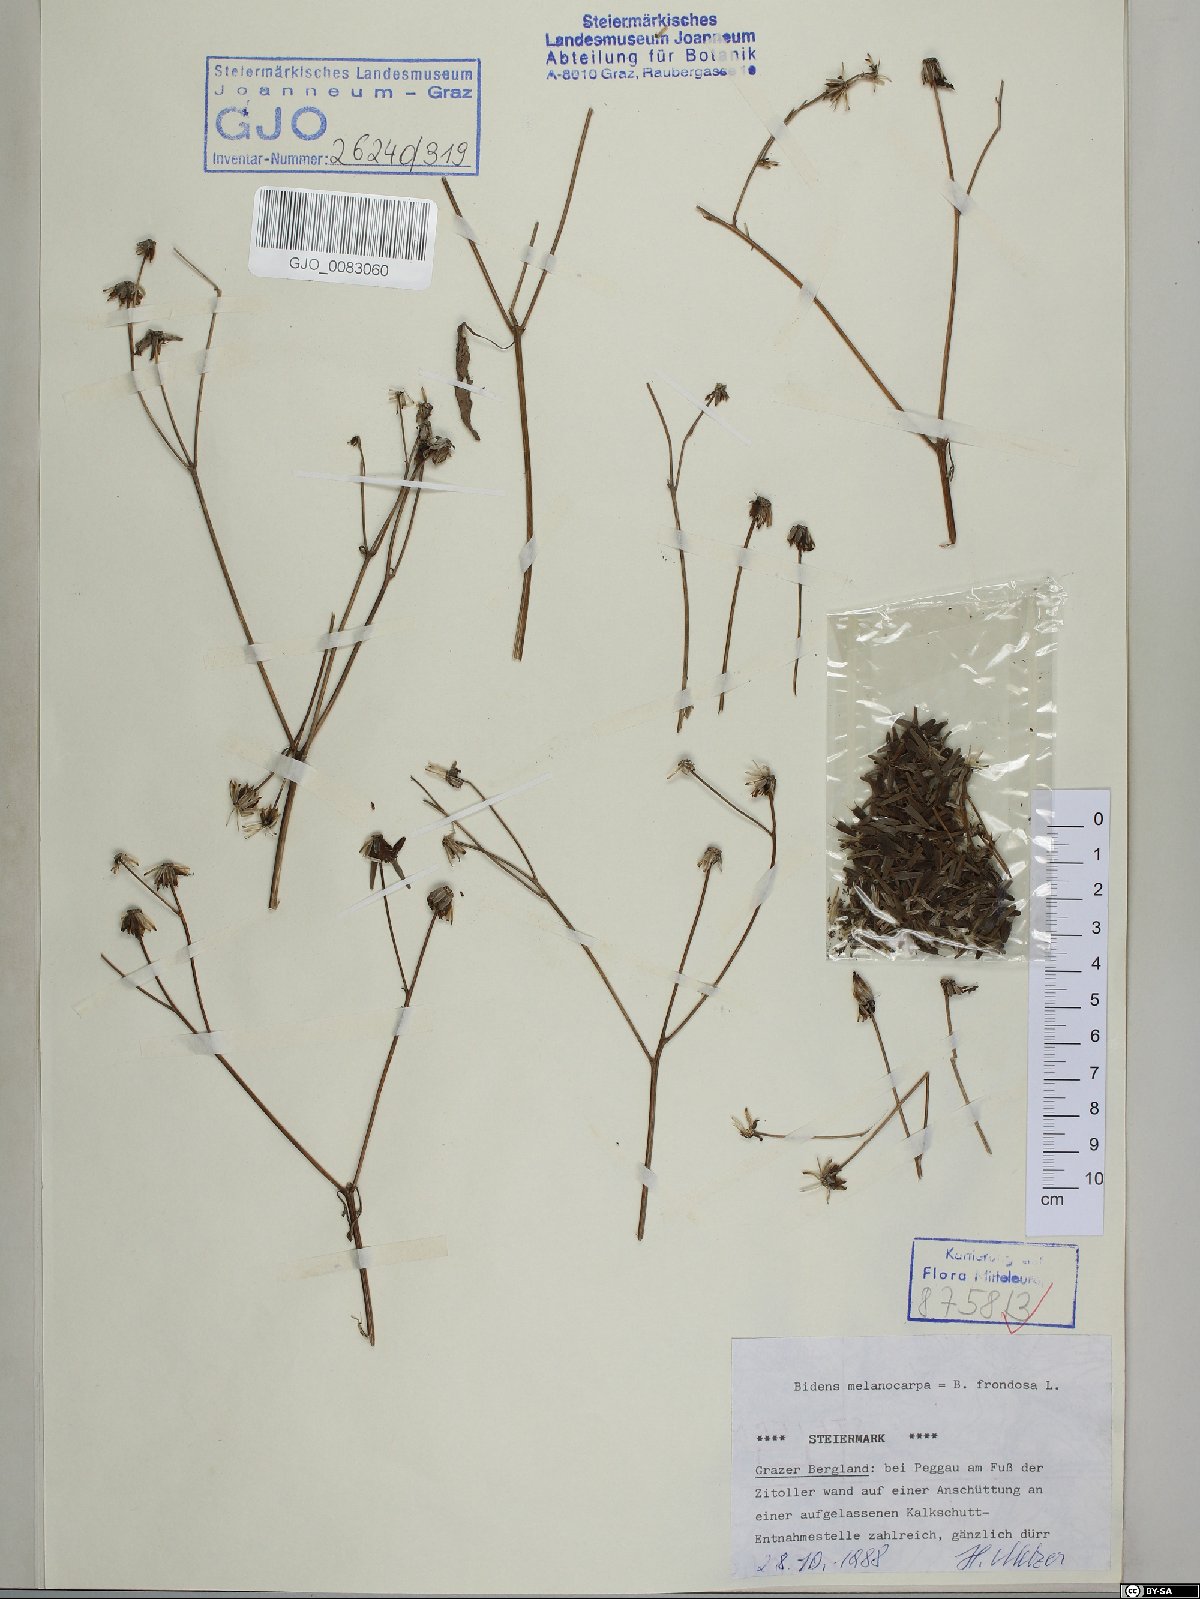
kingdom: Plantae
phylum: Tracheophyta
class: Magnoliopsida
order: Asterales
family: Asteraceae
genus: Bidens
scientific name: Bidens frondosa
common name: Beggarticks
